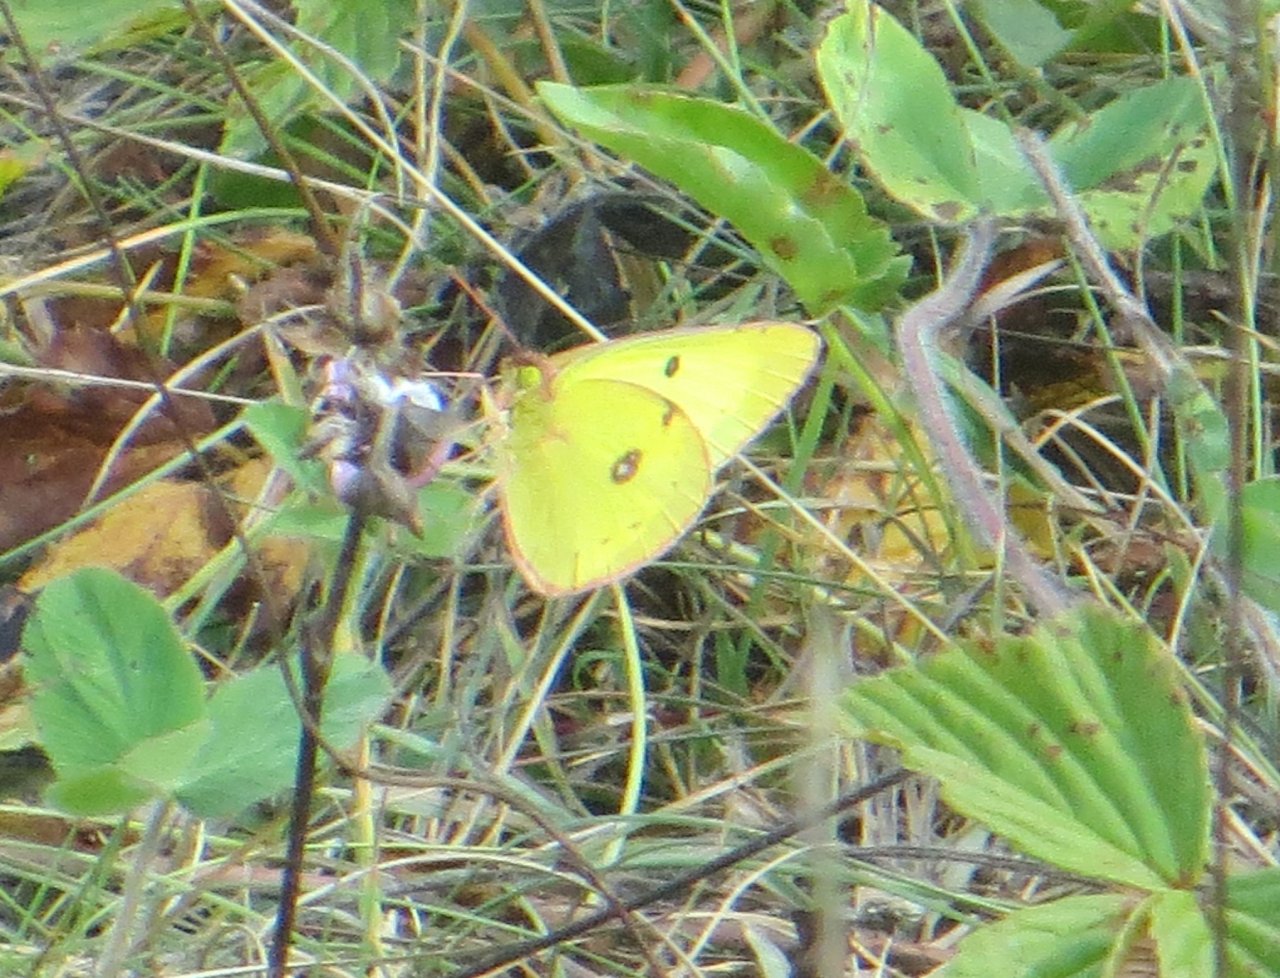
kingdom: Animalia
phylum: Arthropoda
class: Insecta
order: Lepidoptera
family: Pieridae
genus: Colias
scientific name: Colias philodice
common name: Clouded Sulphur
